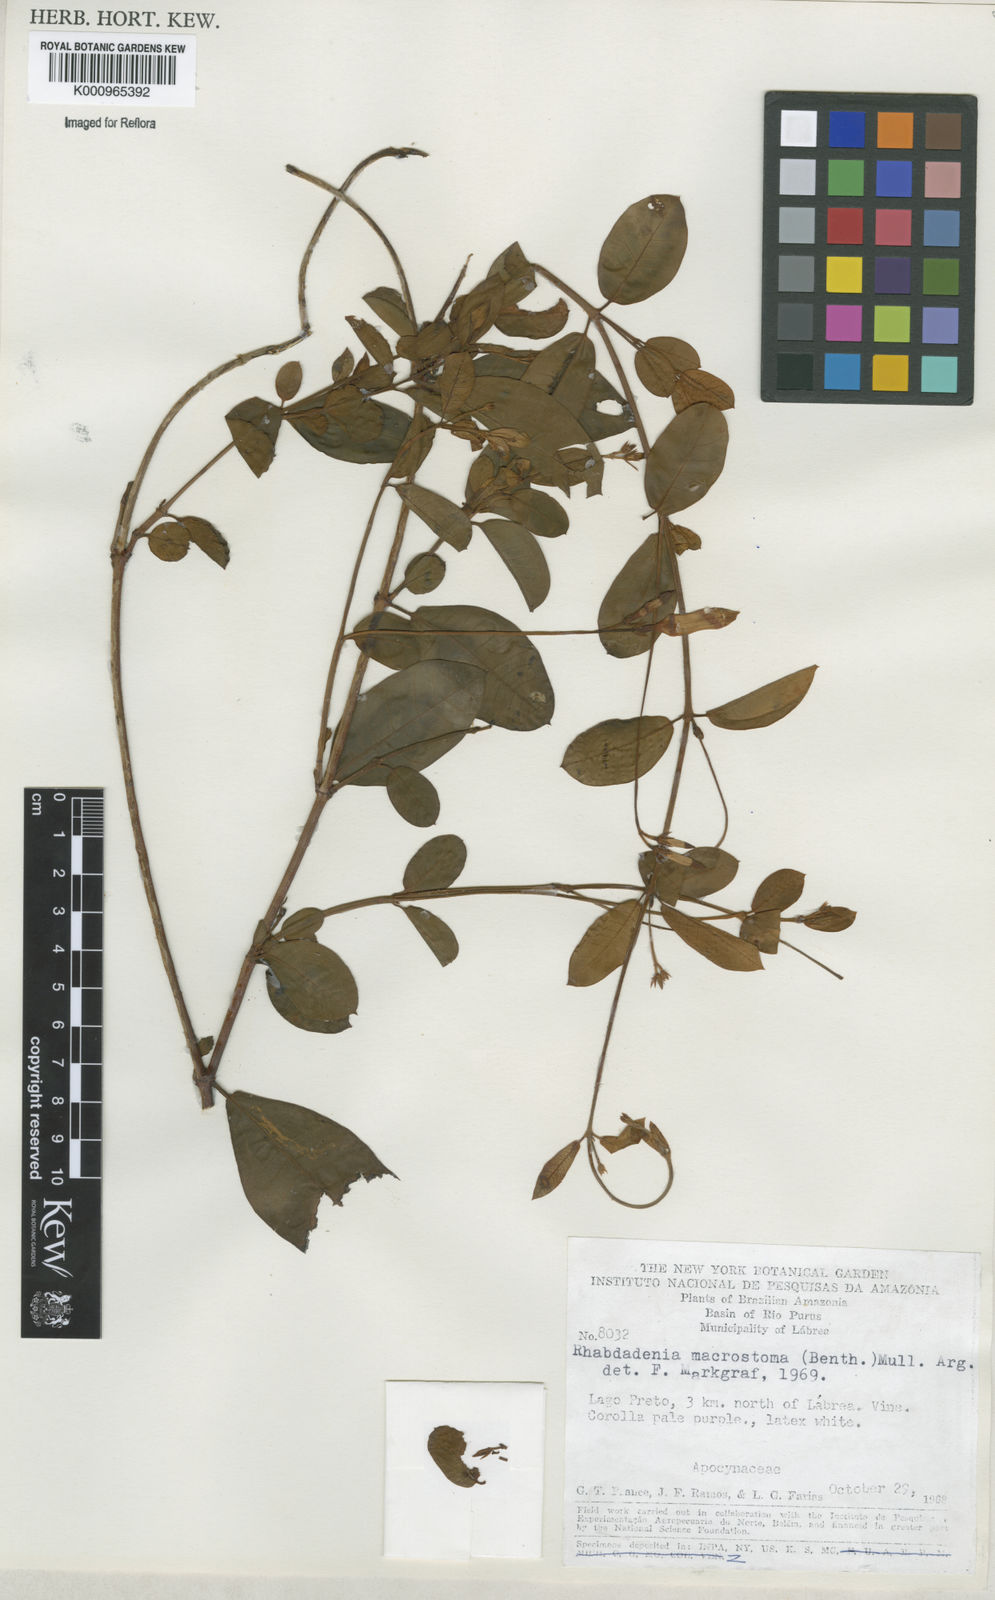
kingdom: Plantae
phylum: Tracheophyta
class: Magnoliopsida
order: Gentianales
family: Apocynaceae
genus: Rhabdadenia
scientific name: Rhabdadenia madida
